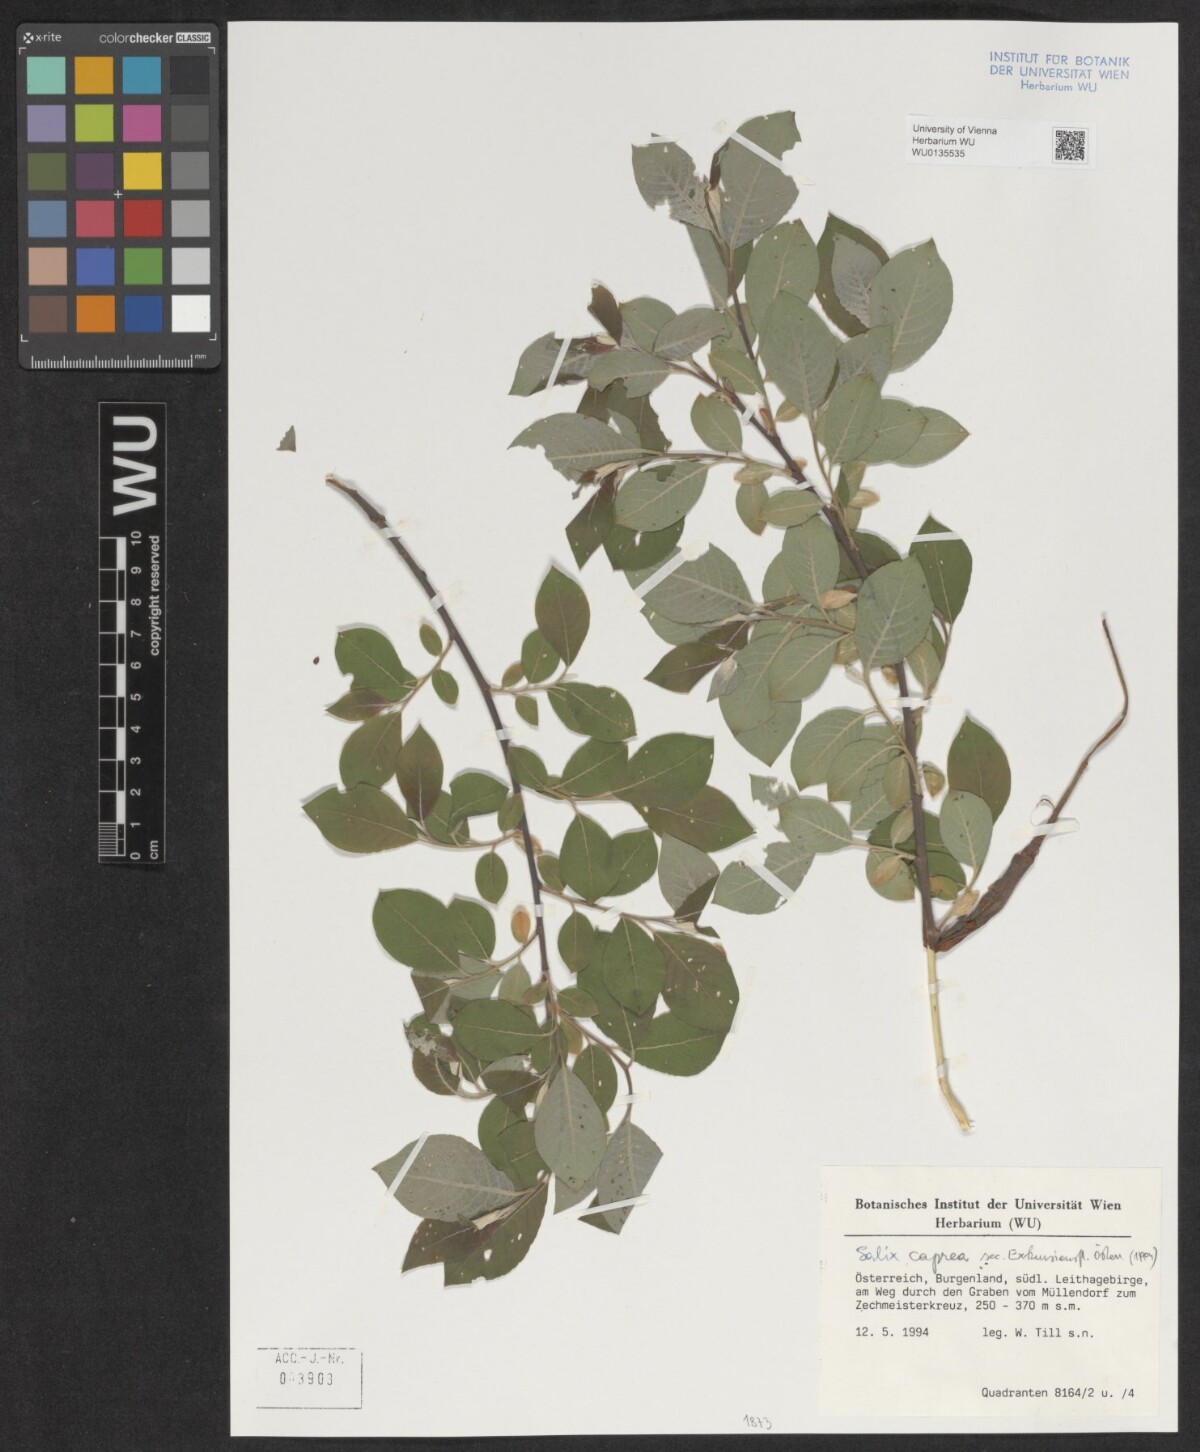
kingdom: Plantae
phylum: Tracheophyta
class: Magnoliopsida
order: Malpighiales
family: Salicaceae
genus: Salix
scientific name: Salix caprea
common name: Goat willow
